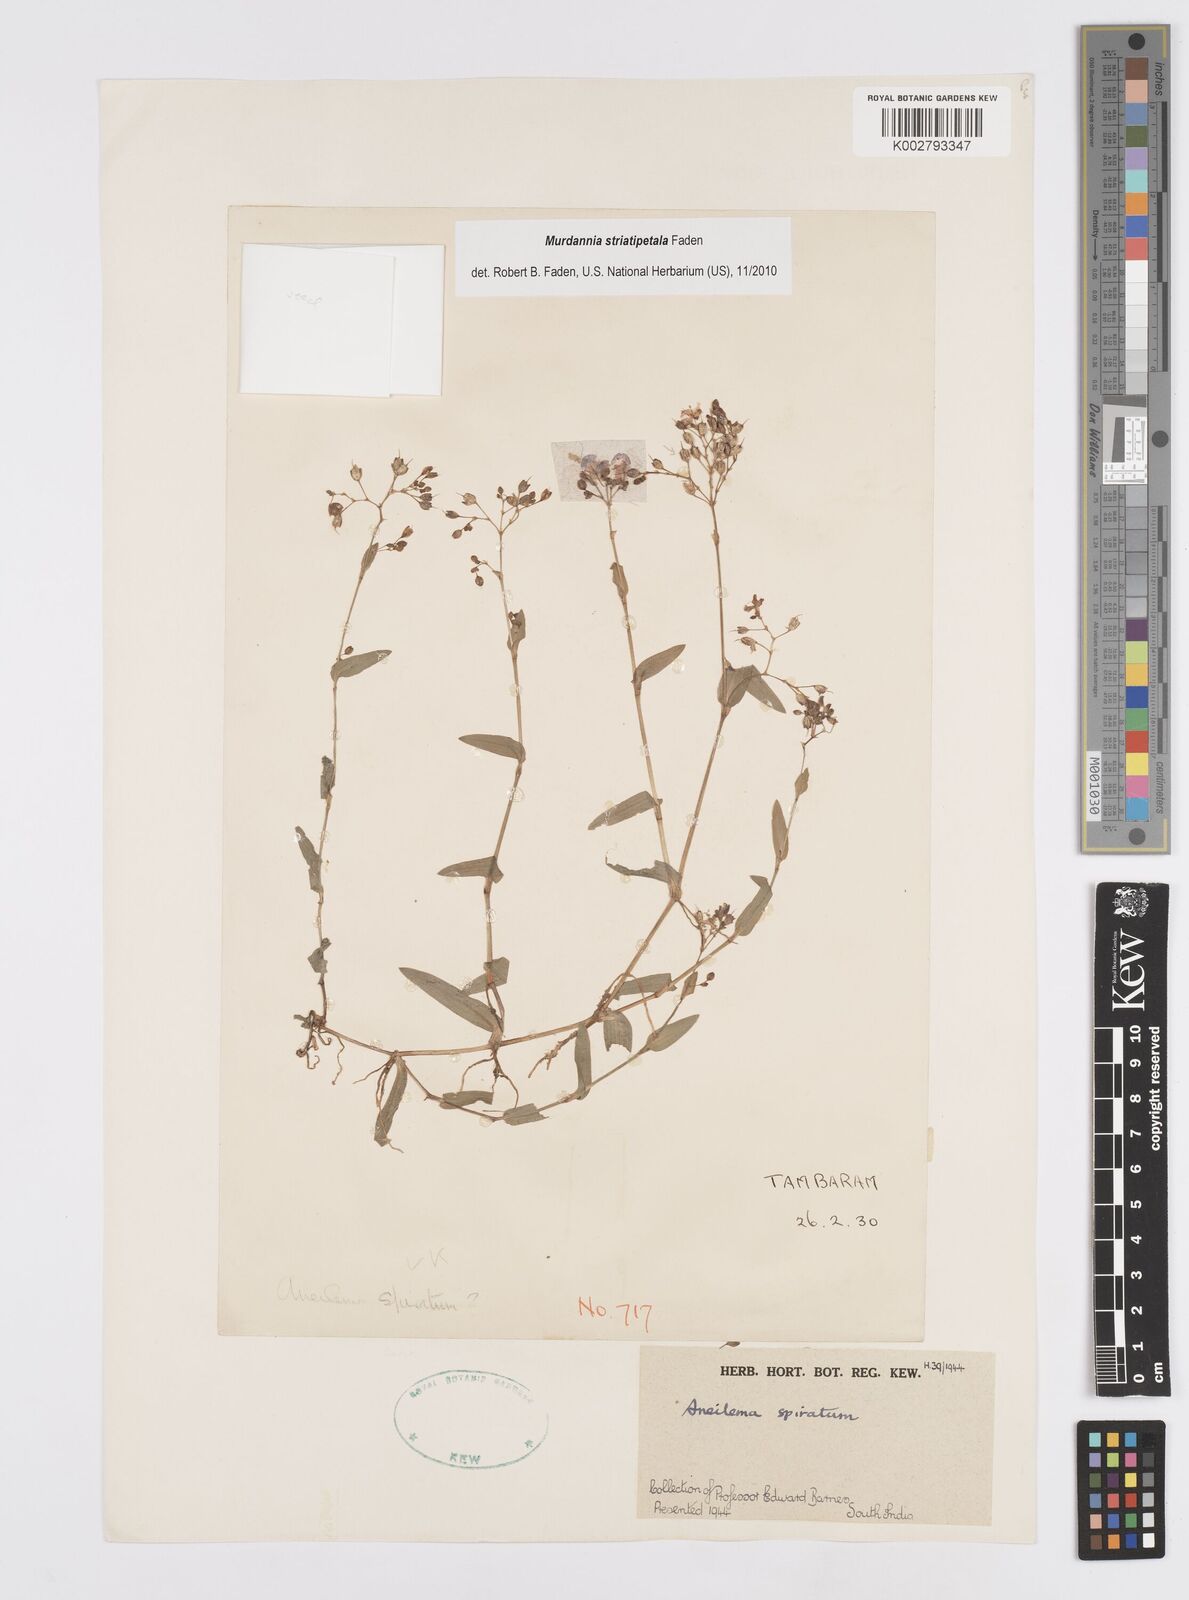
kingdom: Plantae
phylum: Tracheophyta
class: Liliopsida
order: Commelinales
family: Commelinaceae
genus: Murdannia
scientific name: Murdannia striatipetala
